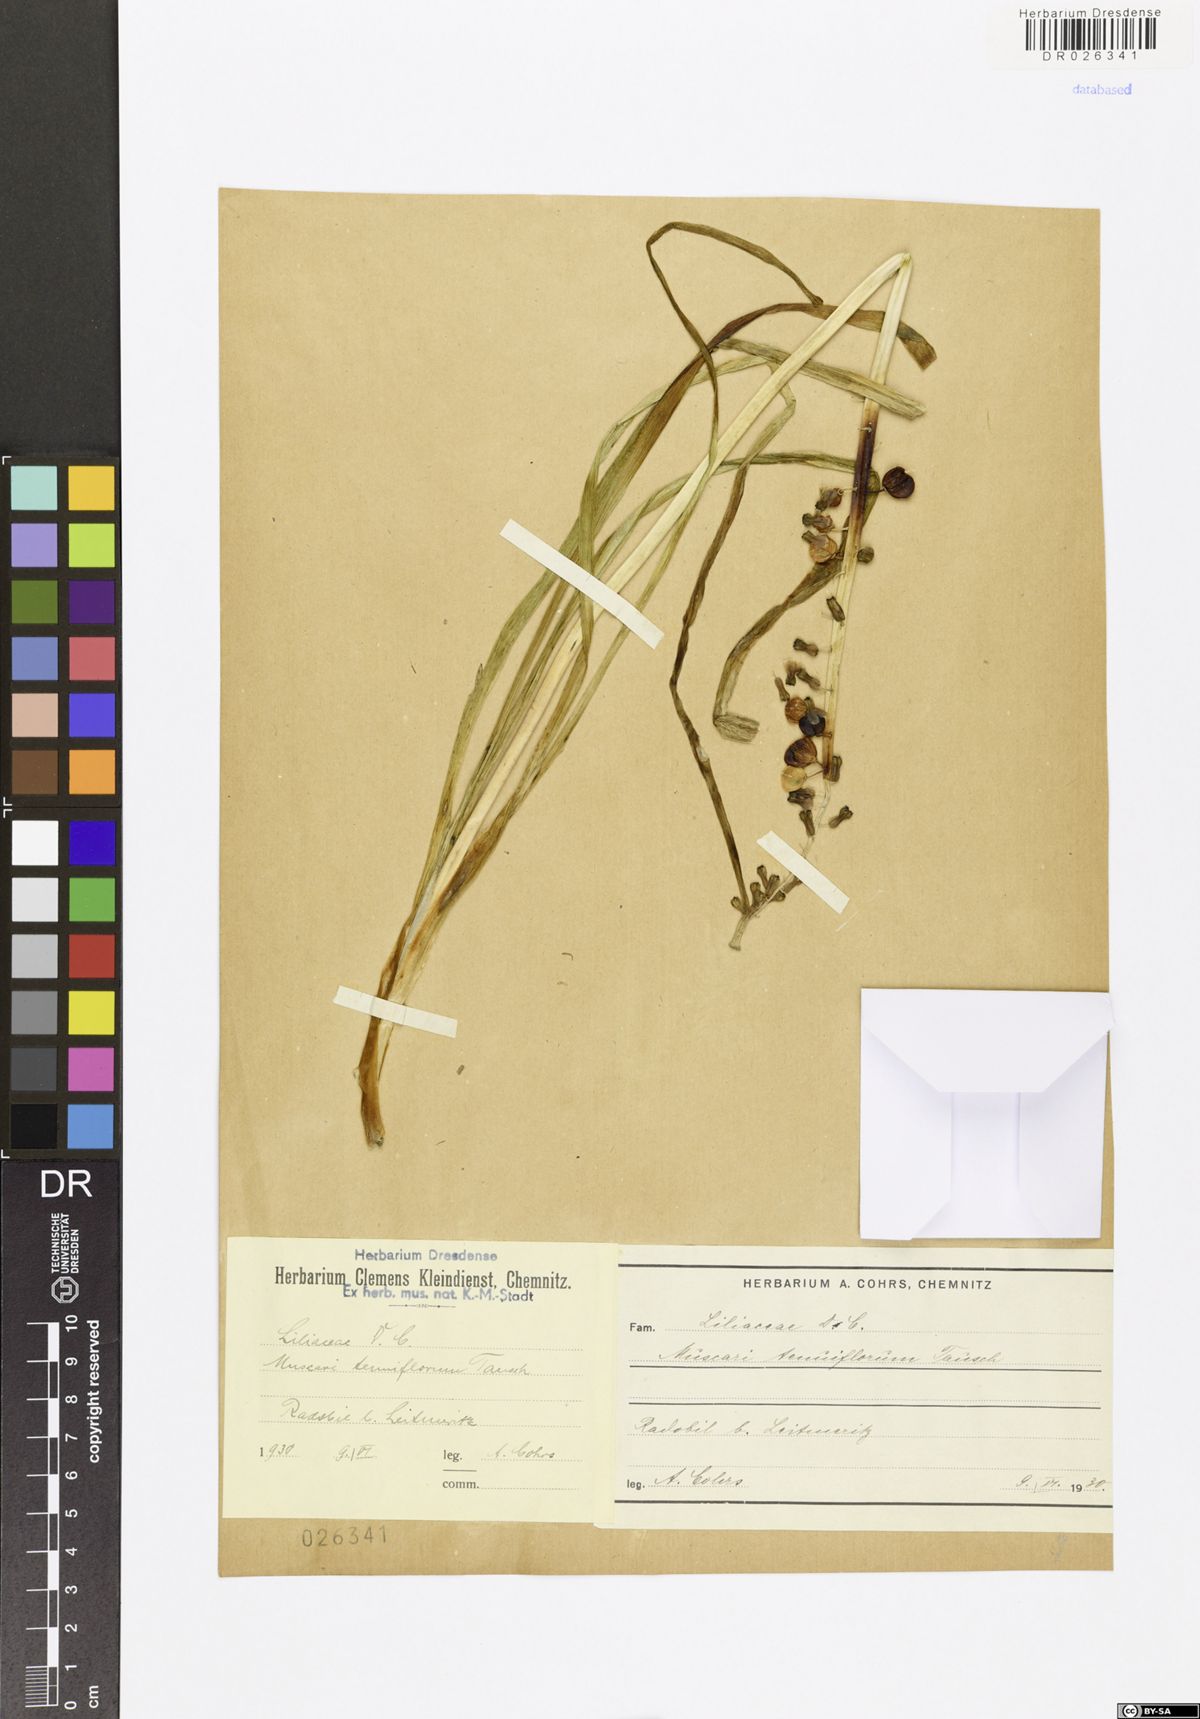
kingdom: Plantae
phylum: Tracheophyta
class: Liliopsida
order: Asparagales
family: Asparagaceae
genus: Muscari
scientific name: Muscari tenuiflorum
